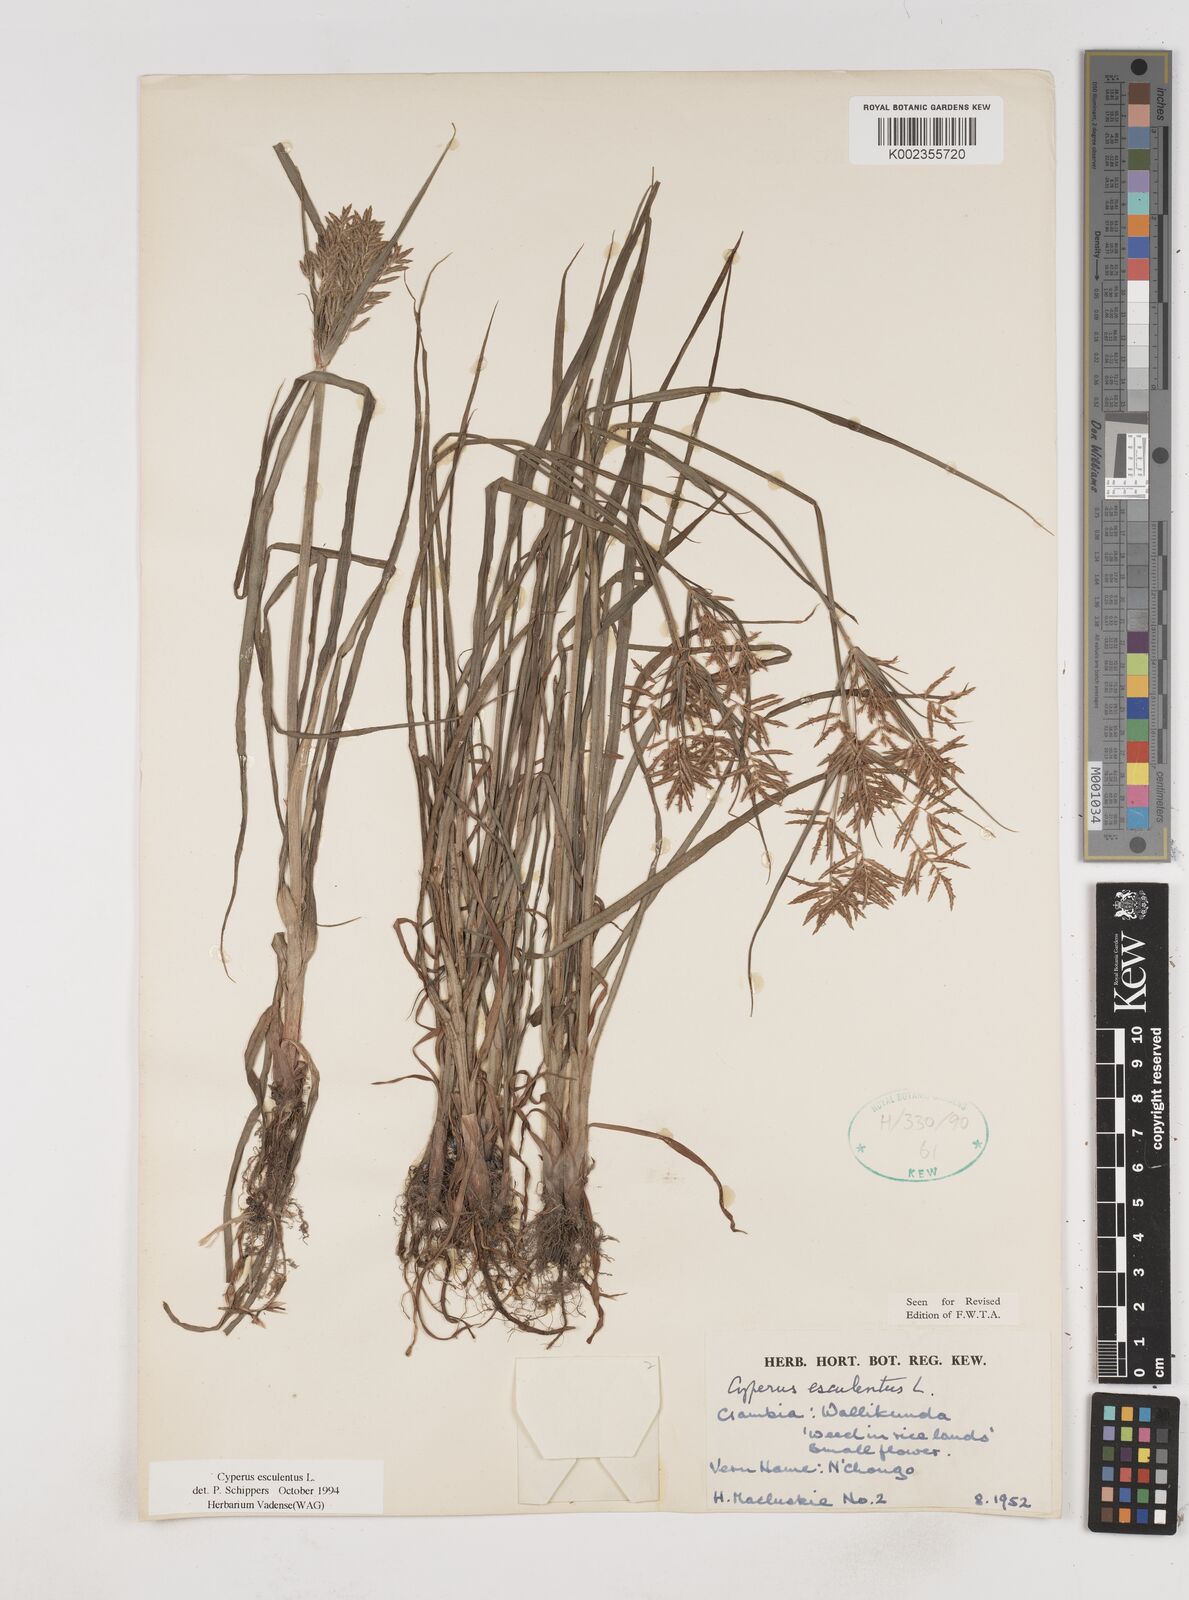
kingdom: Plantae
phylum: Tracheophyta
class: Liliopsida
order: Poales
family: Cyperaceae
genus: Cyperus
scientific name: Cyperus esculentus
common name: Yellow nutsedge
